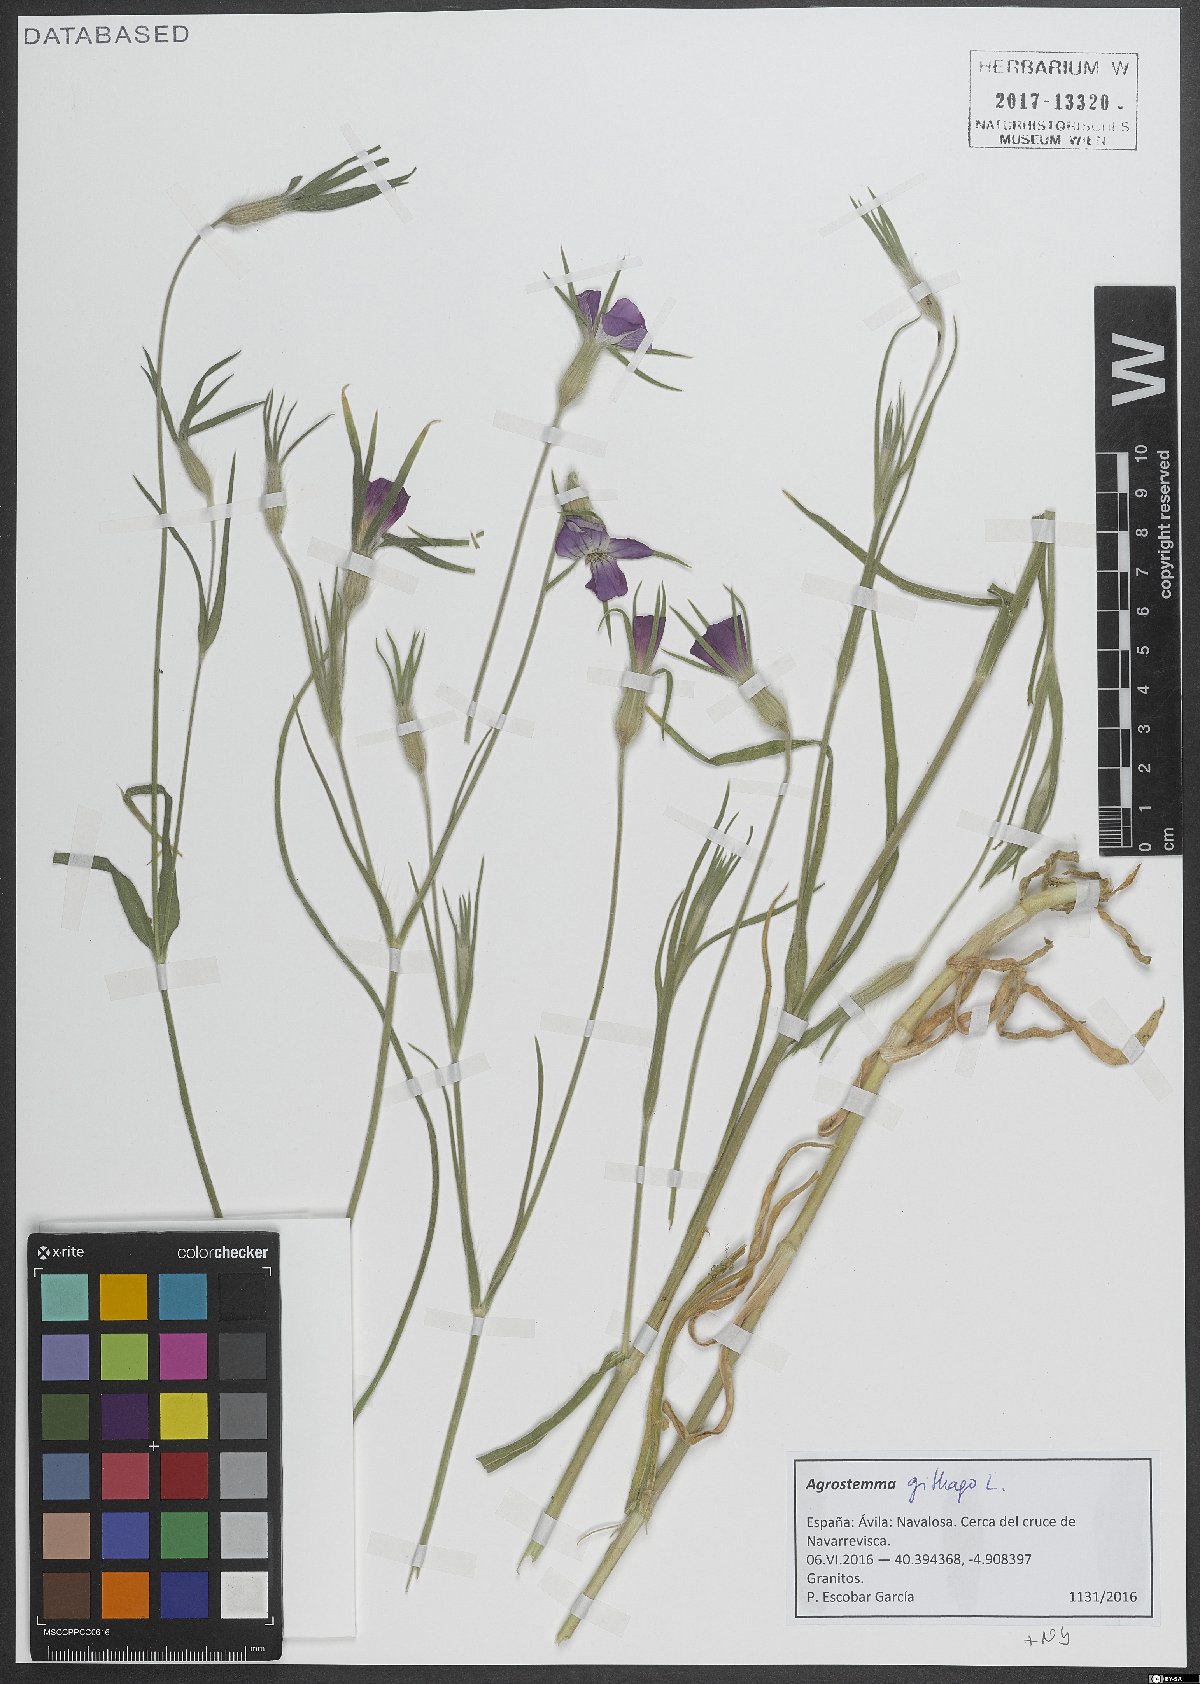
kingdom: Plantae
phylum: Tracheophyta
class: Magnoliopsida
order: Caryophyllales
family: Caryophyllaceae
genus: Agrostemma
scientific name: Agrostemma githago
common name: Common corncockle
